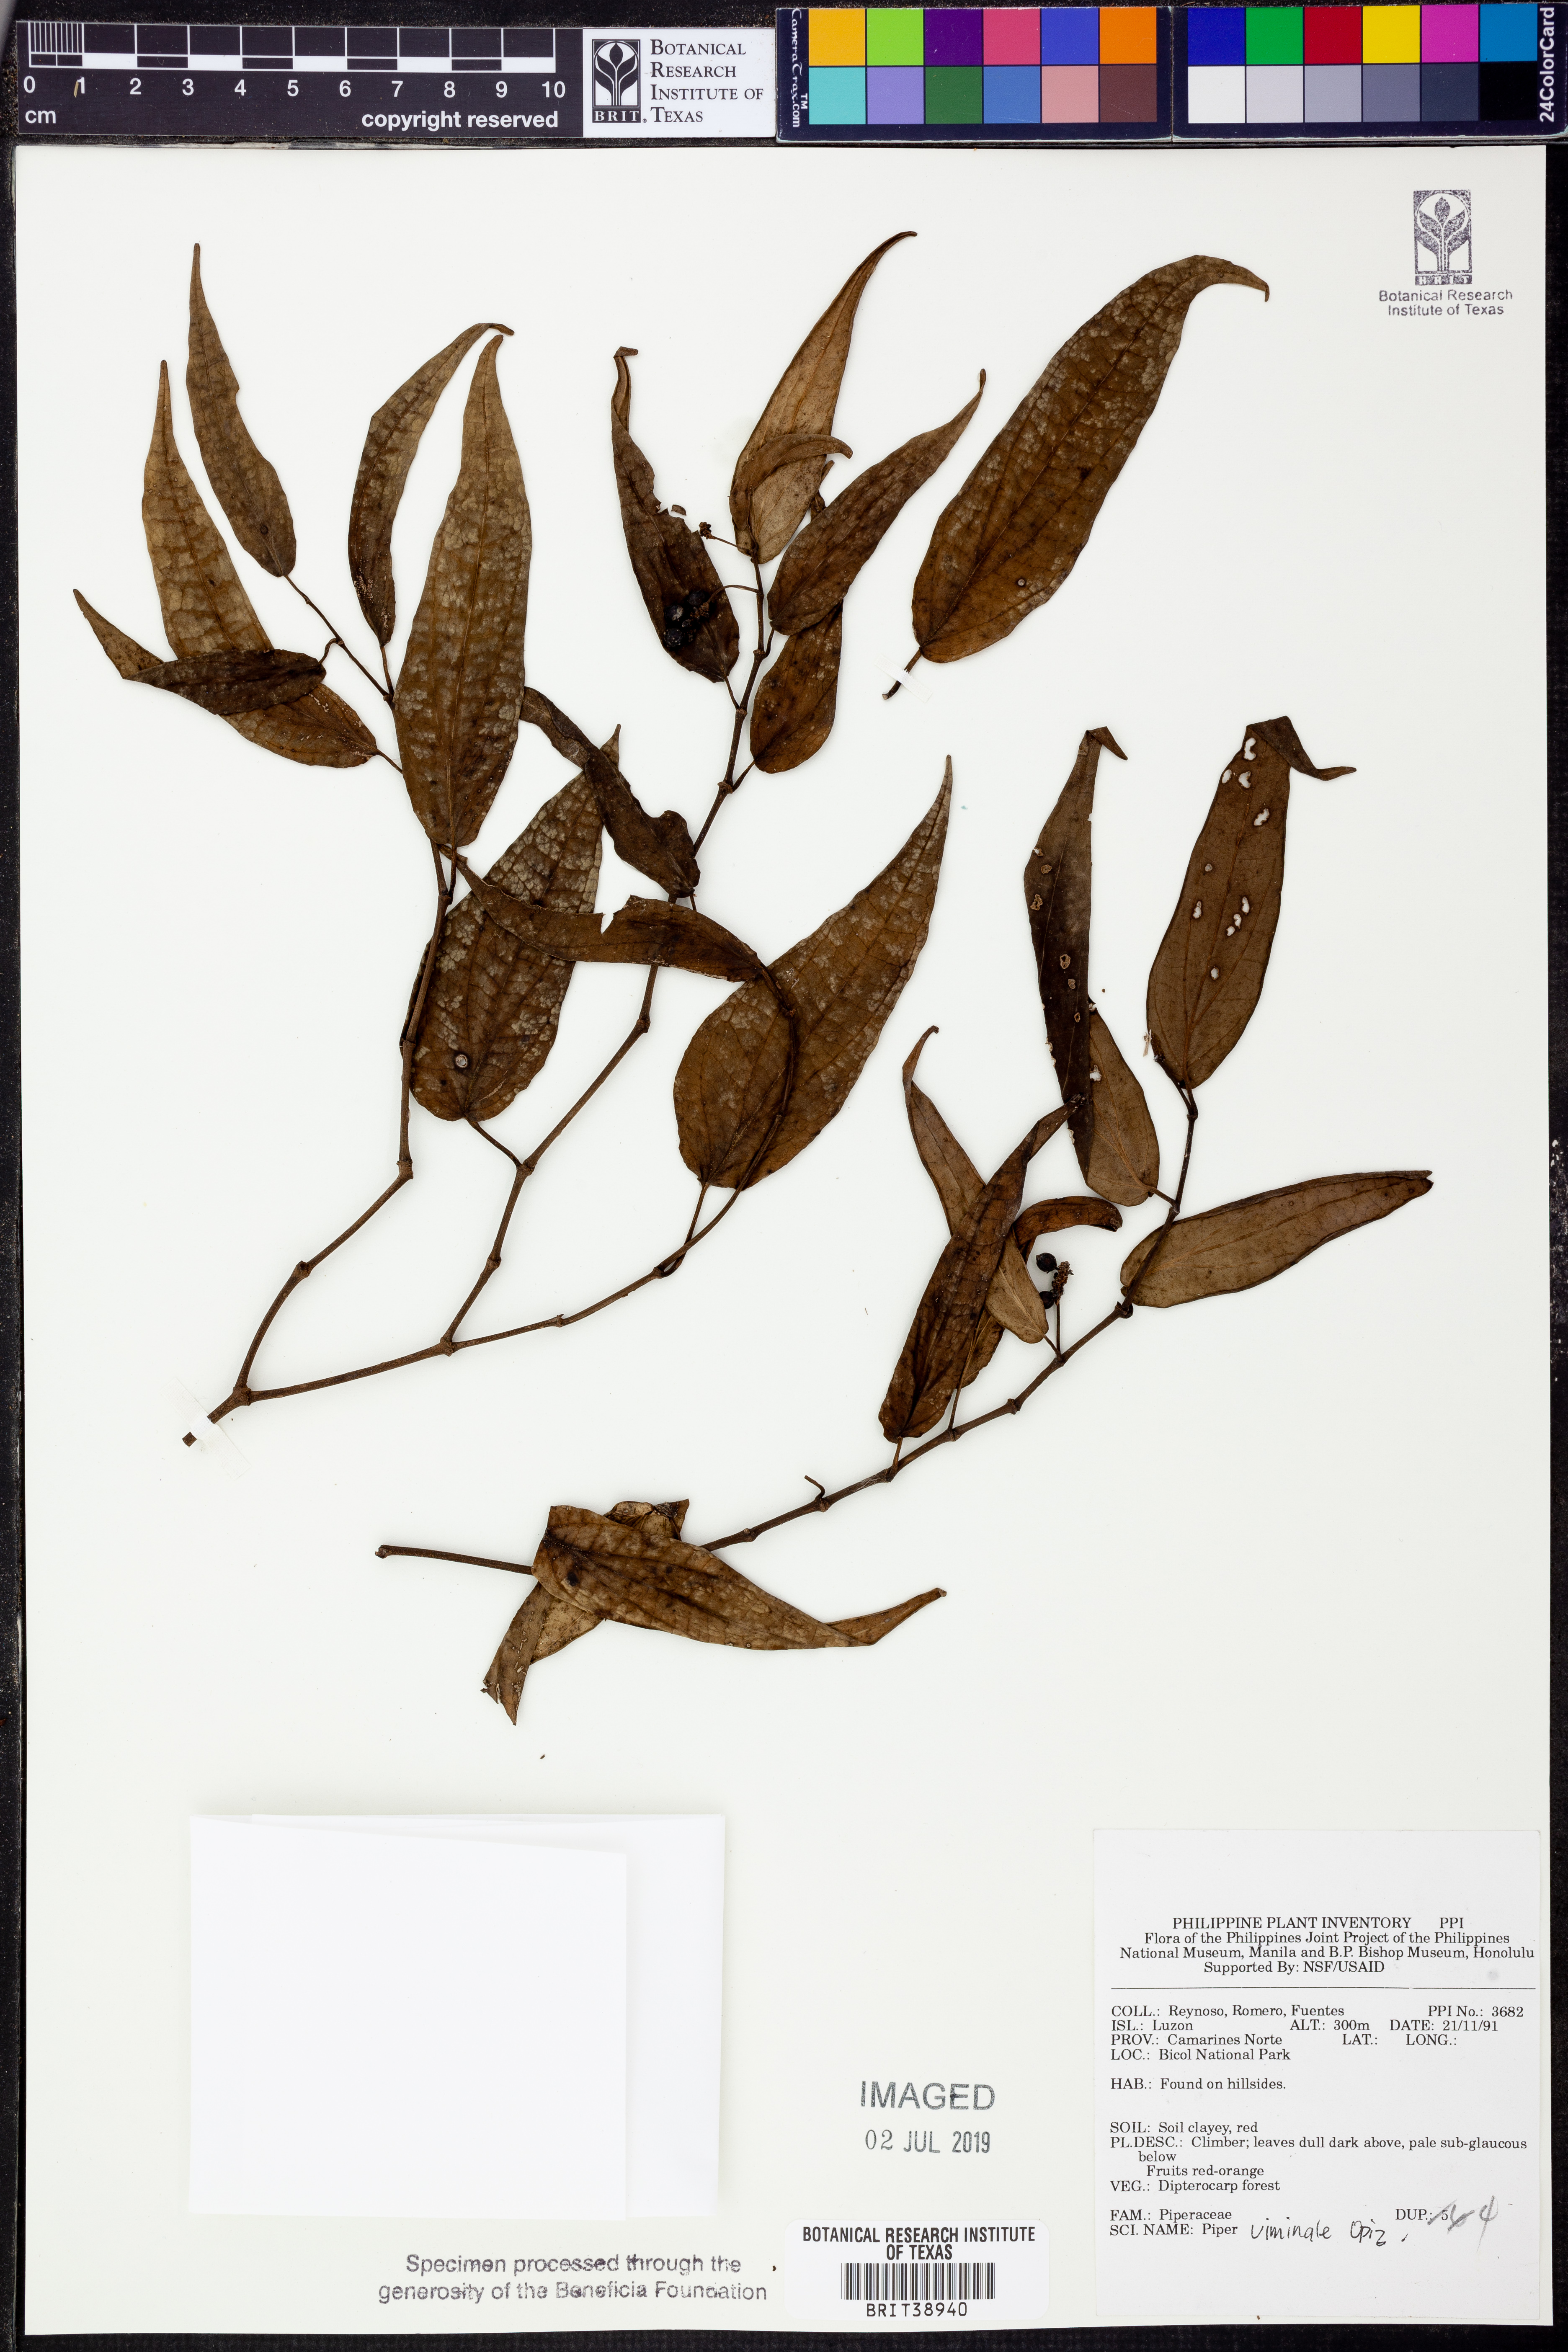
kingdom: Plantae
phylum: Tracheophyta
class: Magnoliopsida
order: Piperales
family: Piperaceae
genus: Piper
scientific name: Piper lanatum
